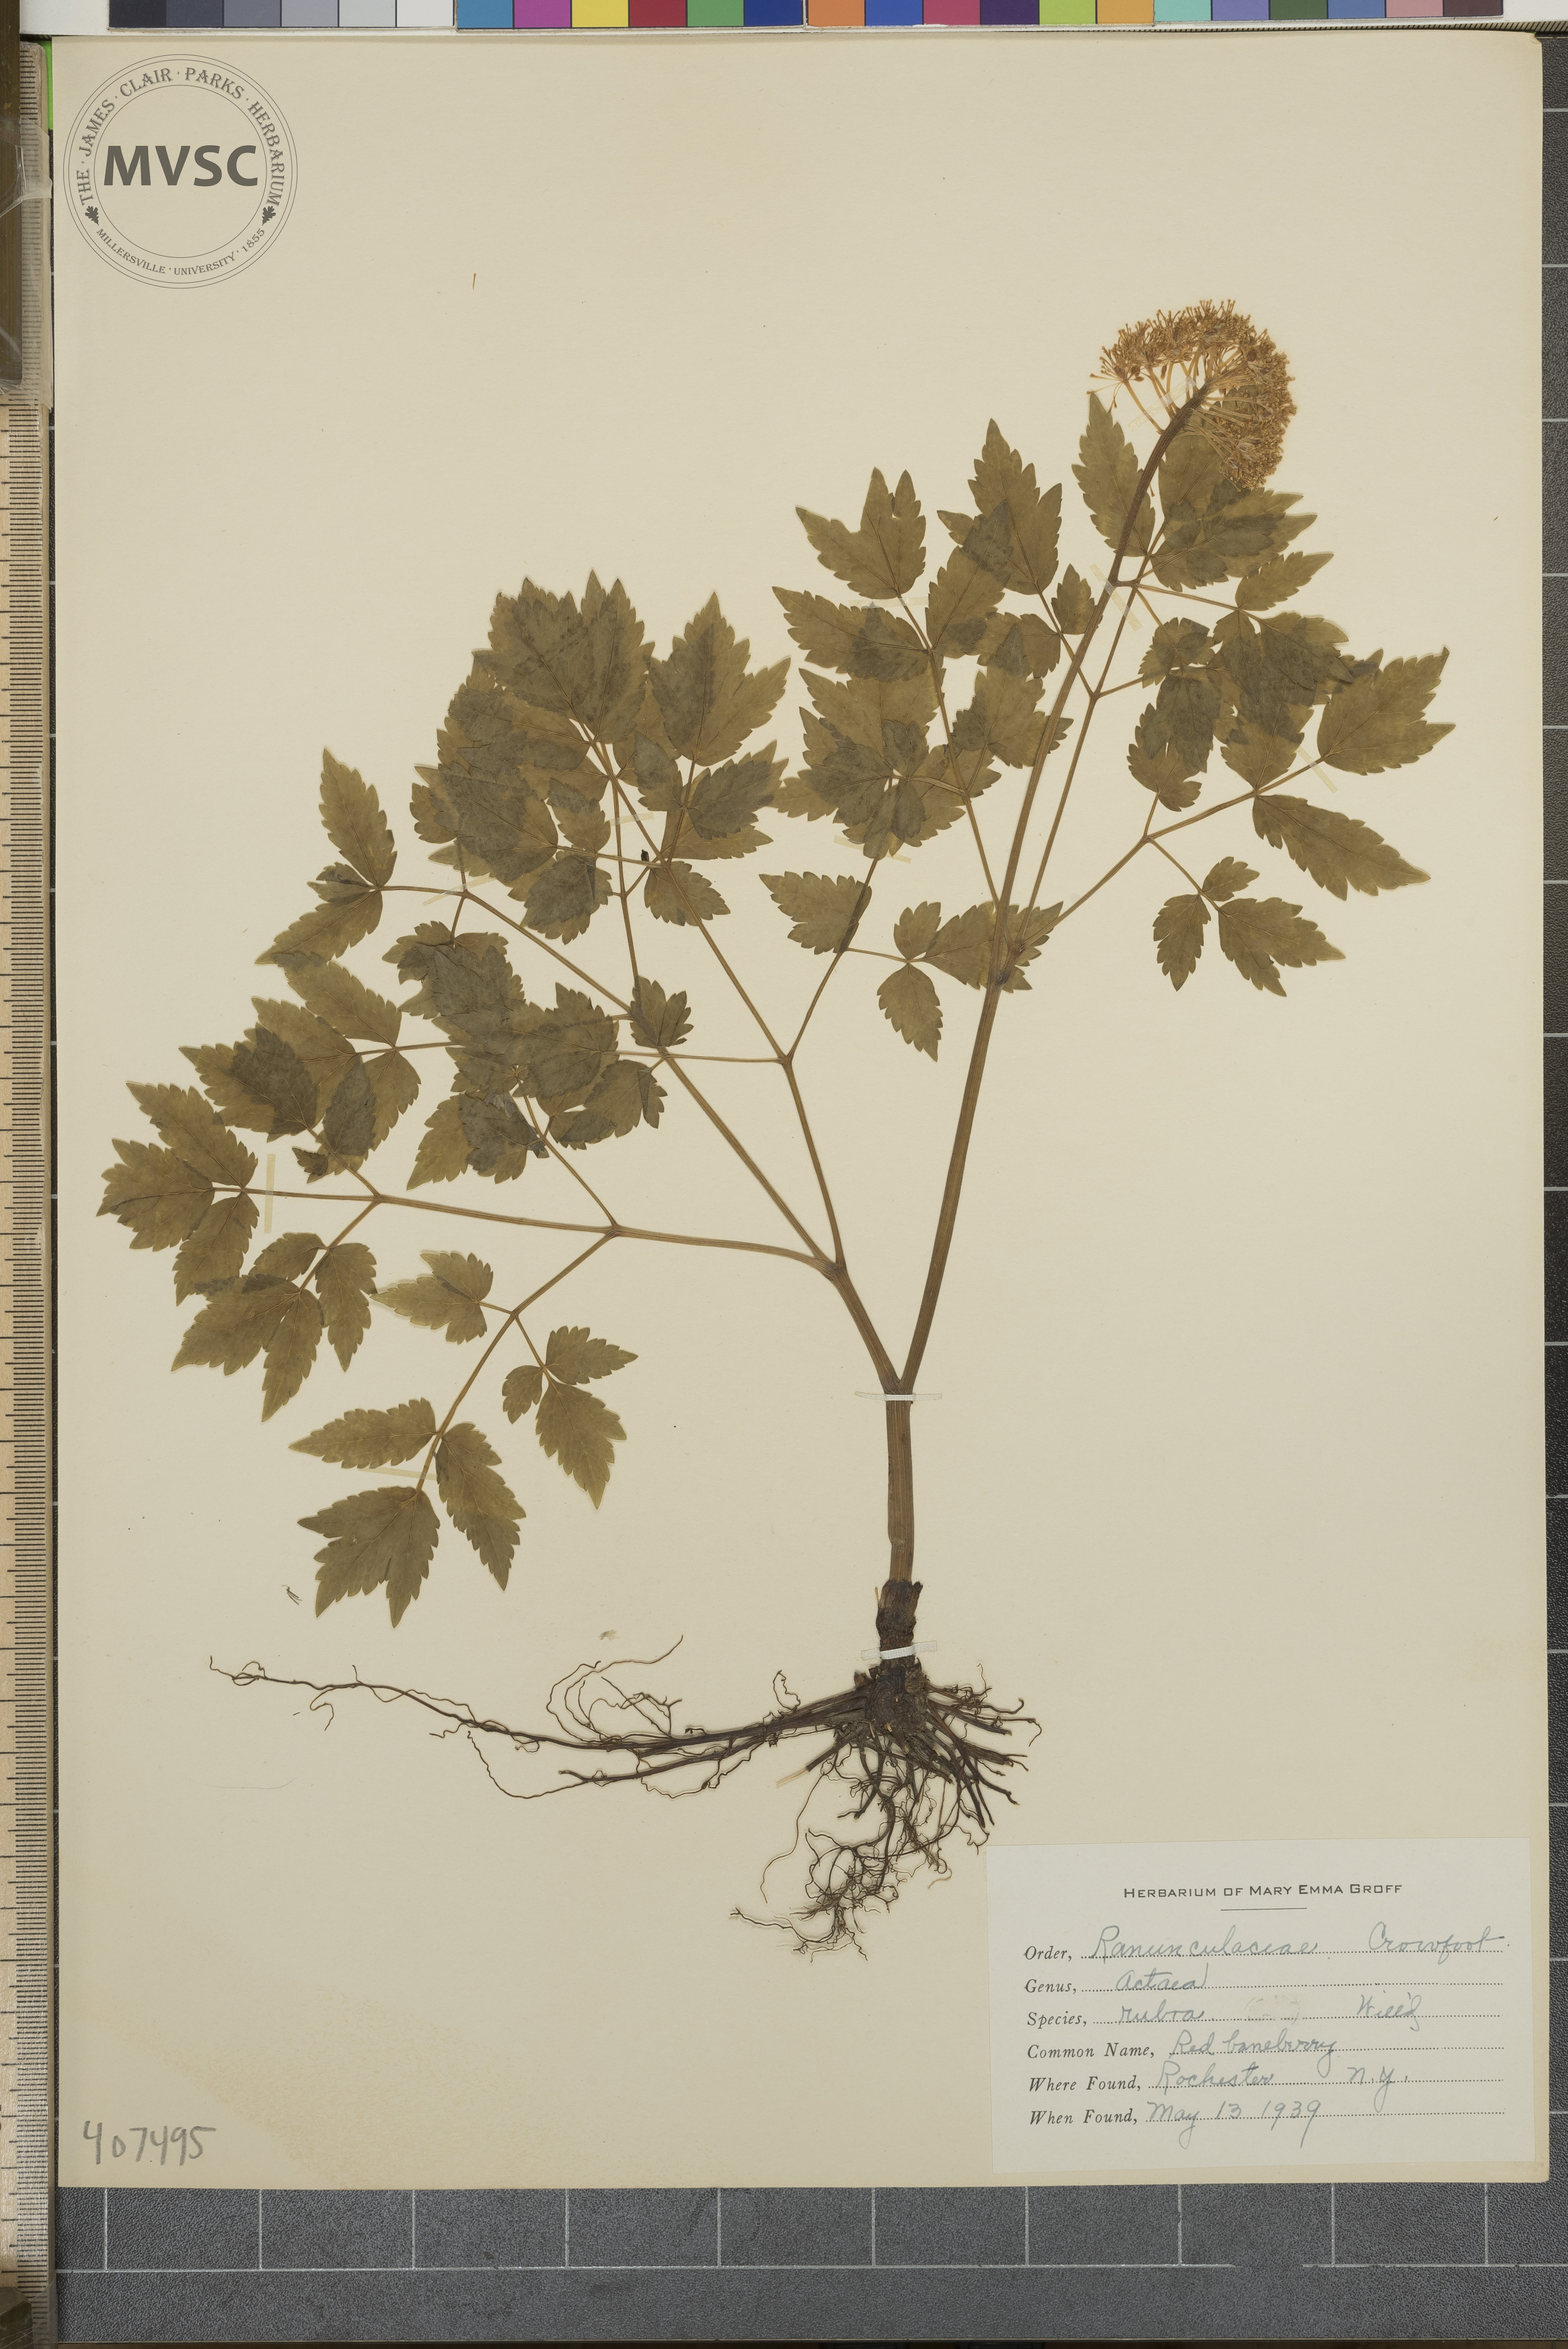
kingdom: Plantae
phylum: Tracheophyta
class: Magnoliopsida
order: Ranunculales
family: Ranunculaceae
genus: Actaea
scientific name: Actaea rubra
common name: Red Baneberry
